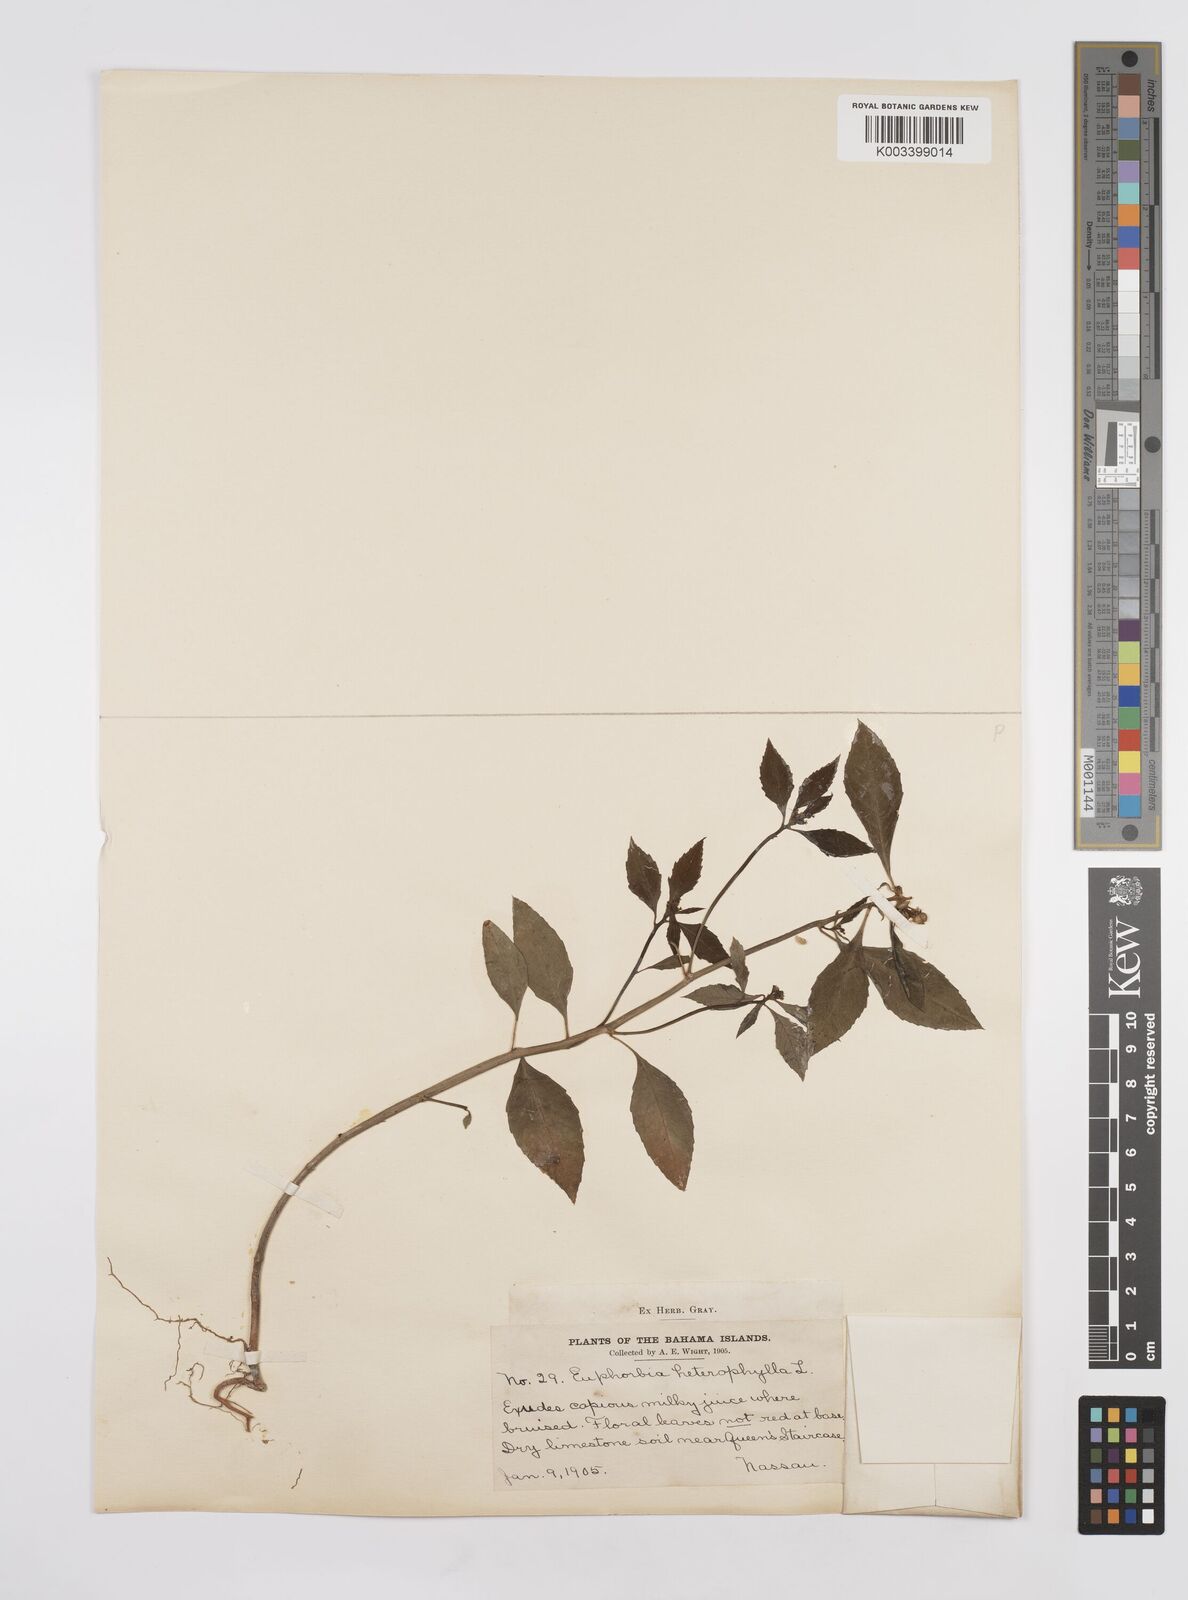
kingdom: Plantae
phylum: Tracheophyta
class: Magnoliopsida
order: Malpighiales
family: Euphorbiaceae
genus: Euphorbia
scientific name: Euphorbia heterophylla
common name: Mexican fireplant
